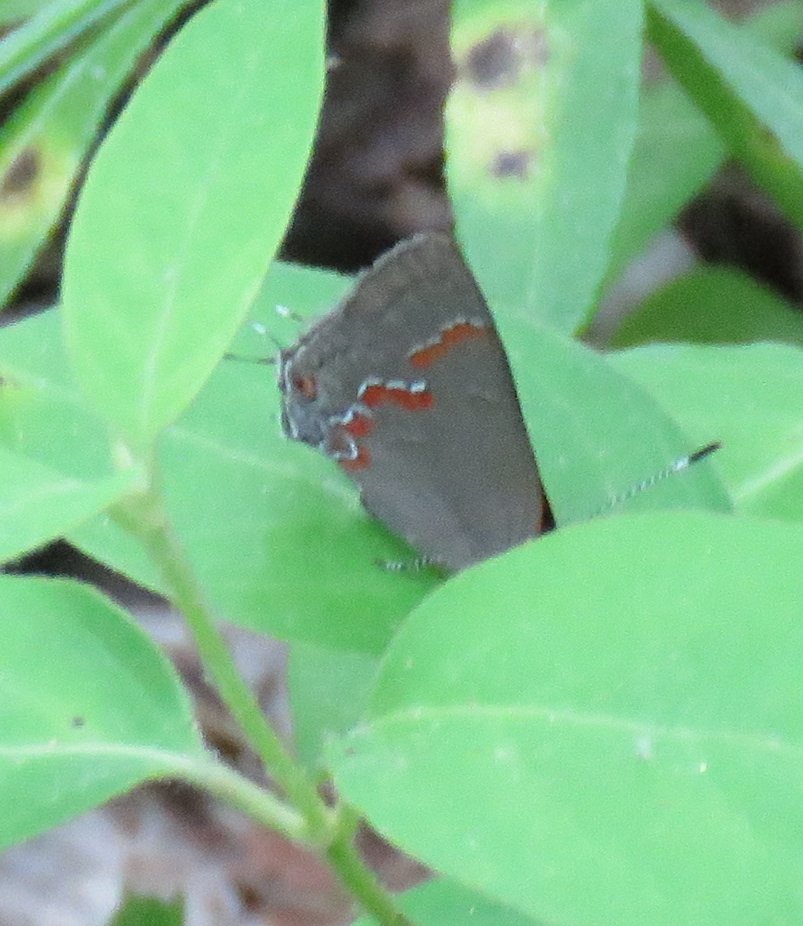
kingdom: Animalia
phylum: Arthropoda
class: Insecta
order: Lepidoptera
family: Lycaenidae
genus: Calycopis
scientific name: Calycopis cecrops
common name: Red-banded Hairstreak
